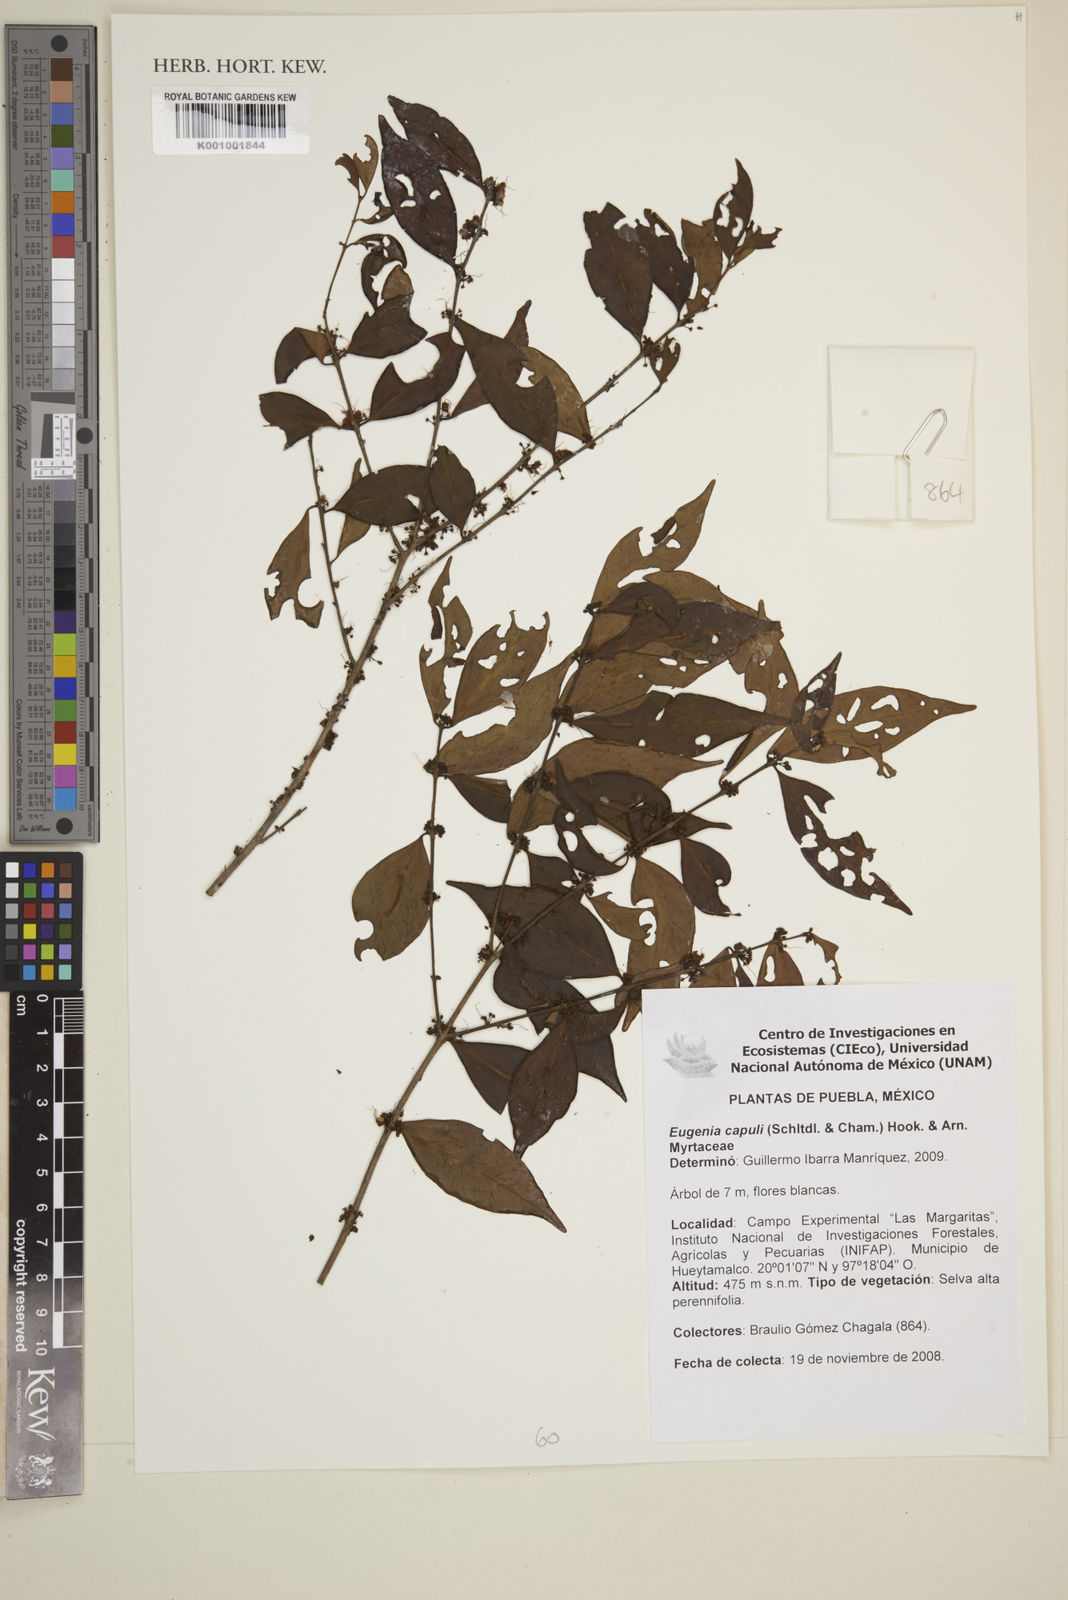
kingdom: Plantae
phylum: Tracheophyta
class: Magnoliopsida
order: Myrtales
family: Myrtaceae
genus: Eugenia
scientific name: Eugenia capuli
